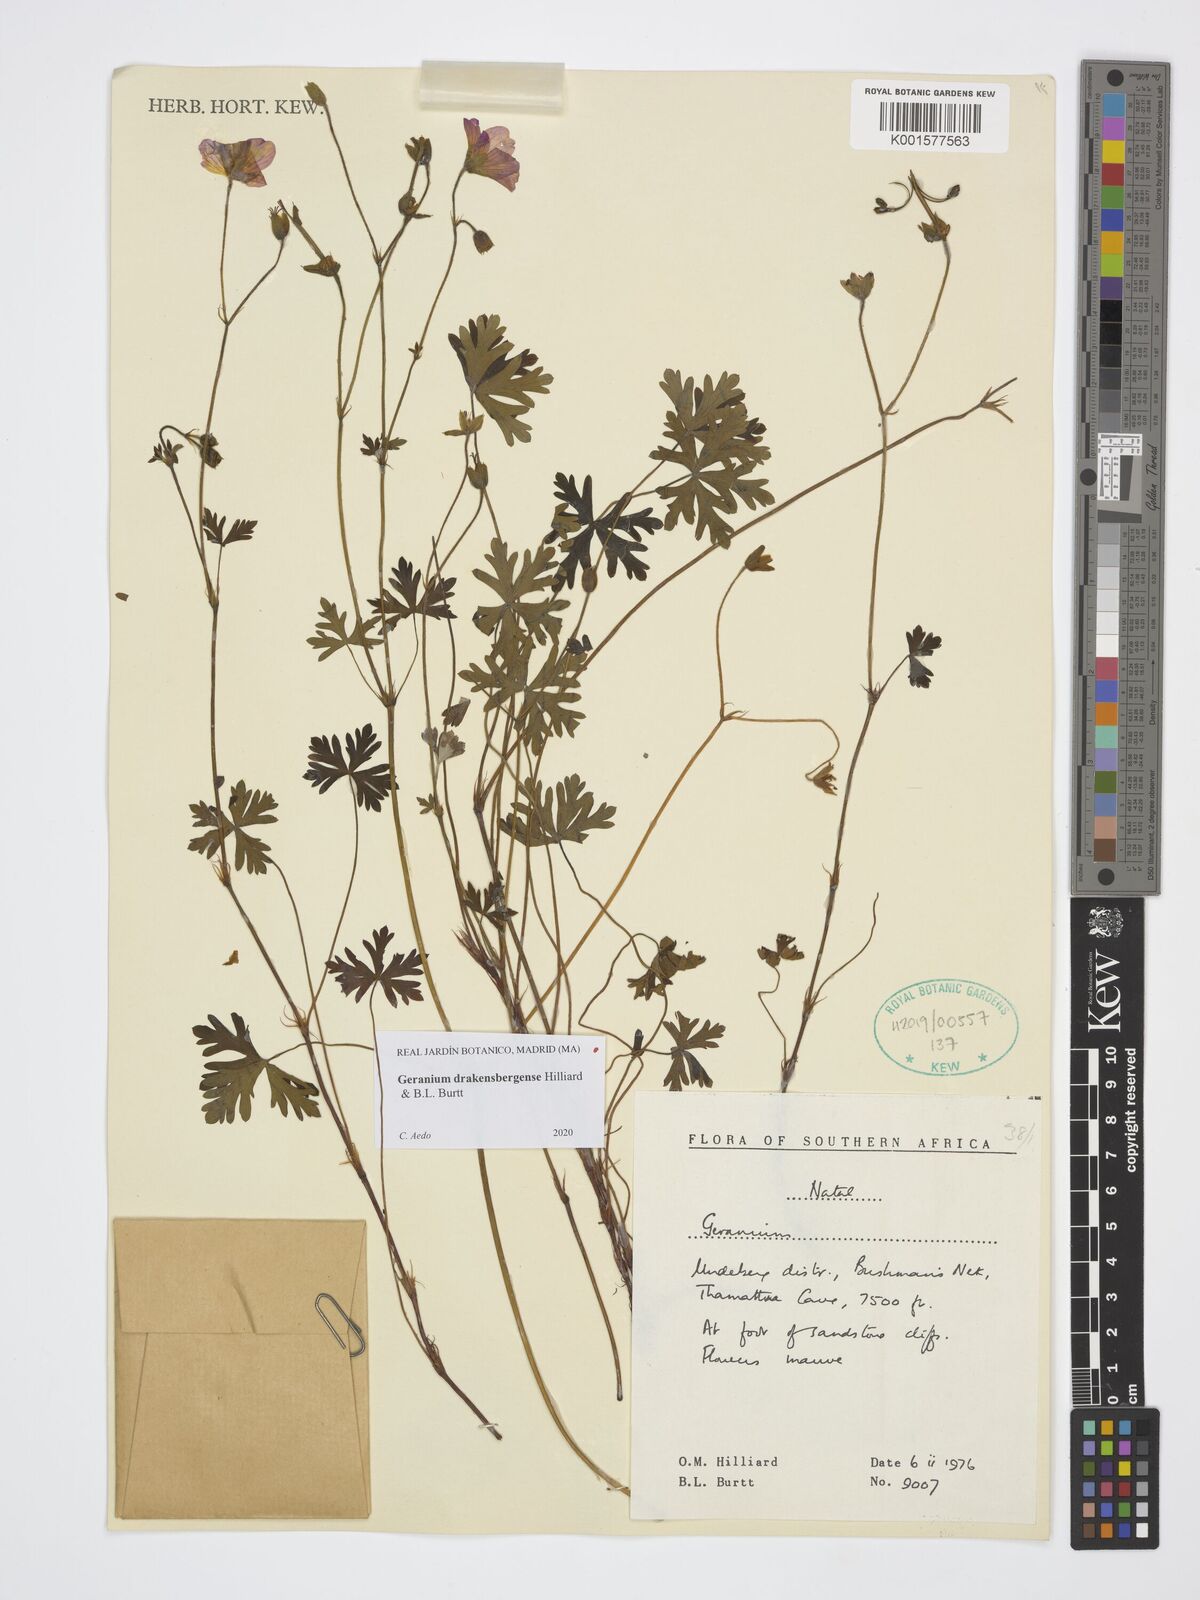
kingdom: Plantae
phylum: Tracheophyta
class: Magnoliopsida
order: Geraniales
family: Geraniaceae
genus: Geranium
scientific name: Geranium drakensbergense
